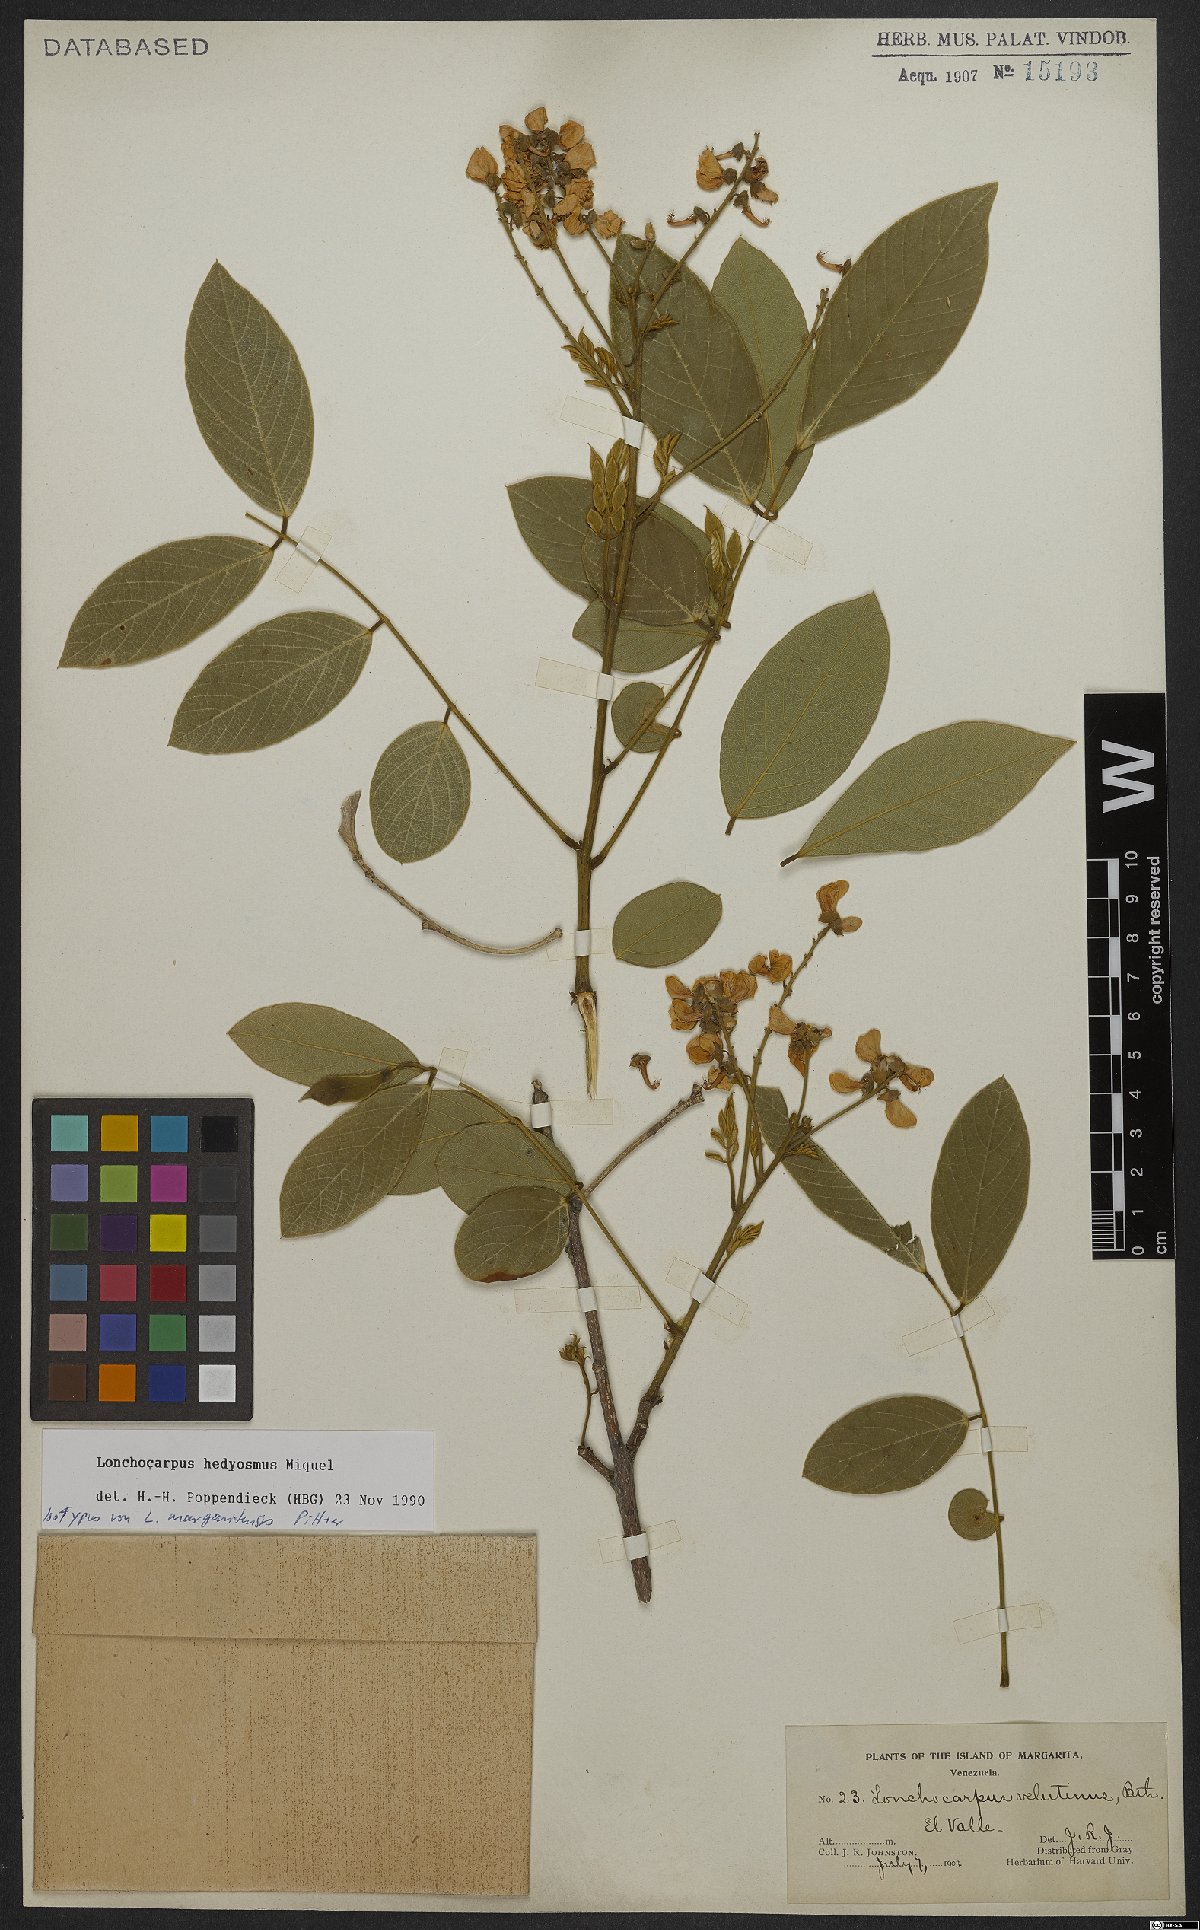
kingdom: Plantae
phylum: Tracheophyta
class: Magnoliopsida
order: Fabales
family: Fabaceae
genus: Lonchocarpus
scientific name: Lonchocarpus hedyosmus
